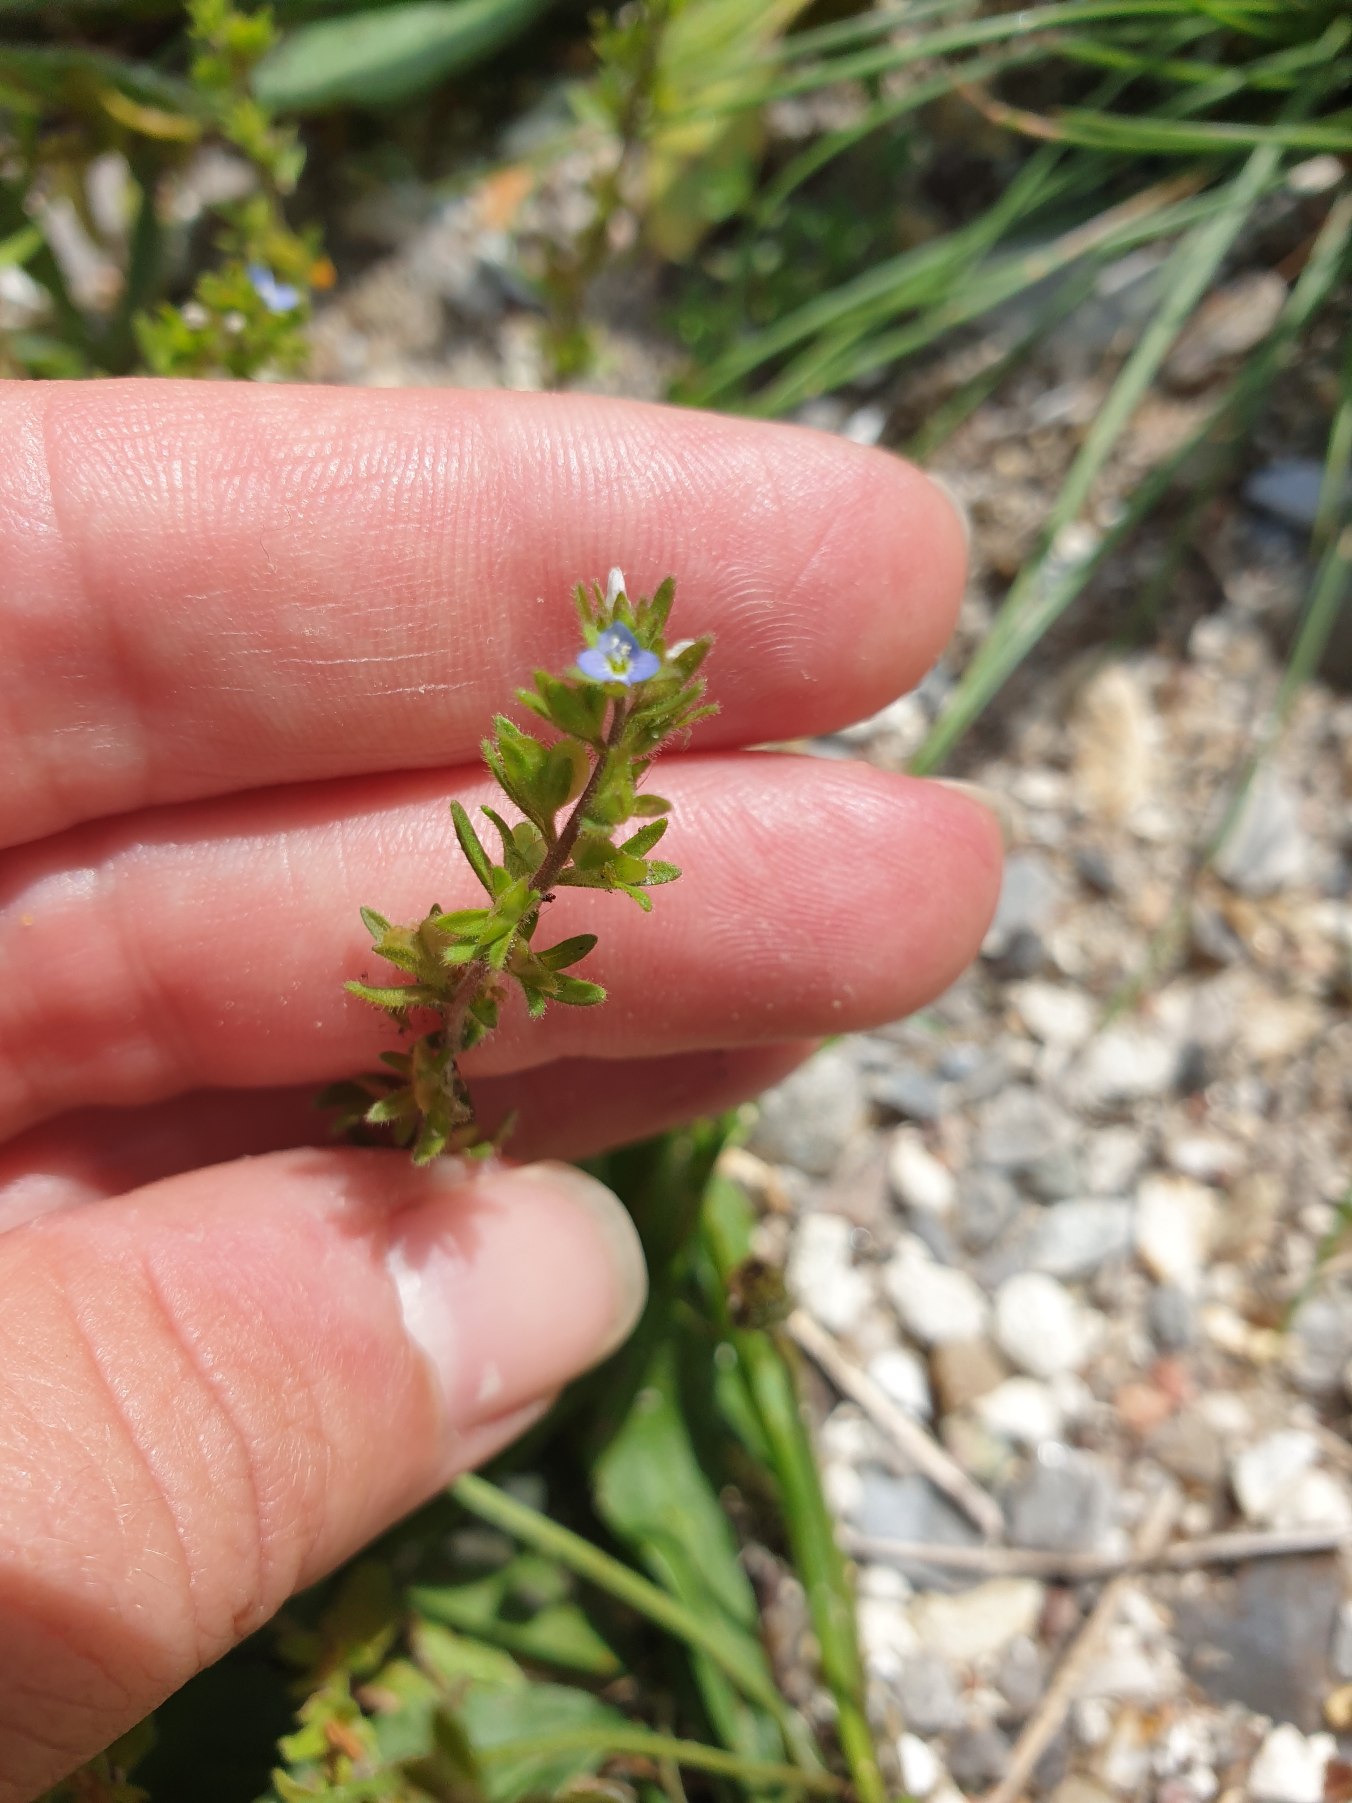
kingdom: Plantae
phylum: Tracheophyta
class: Magnoliopsida
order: Lamiales
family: Plantaginaceae
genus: Veronica
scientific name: Veronica arvensis
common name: Mark-ærenpris
